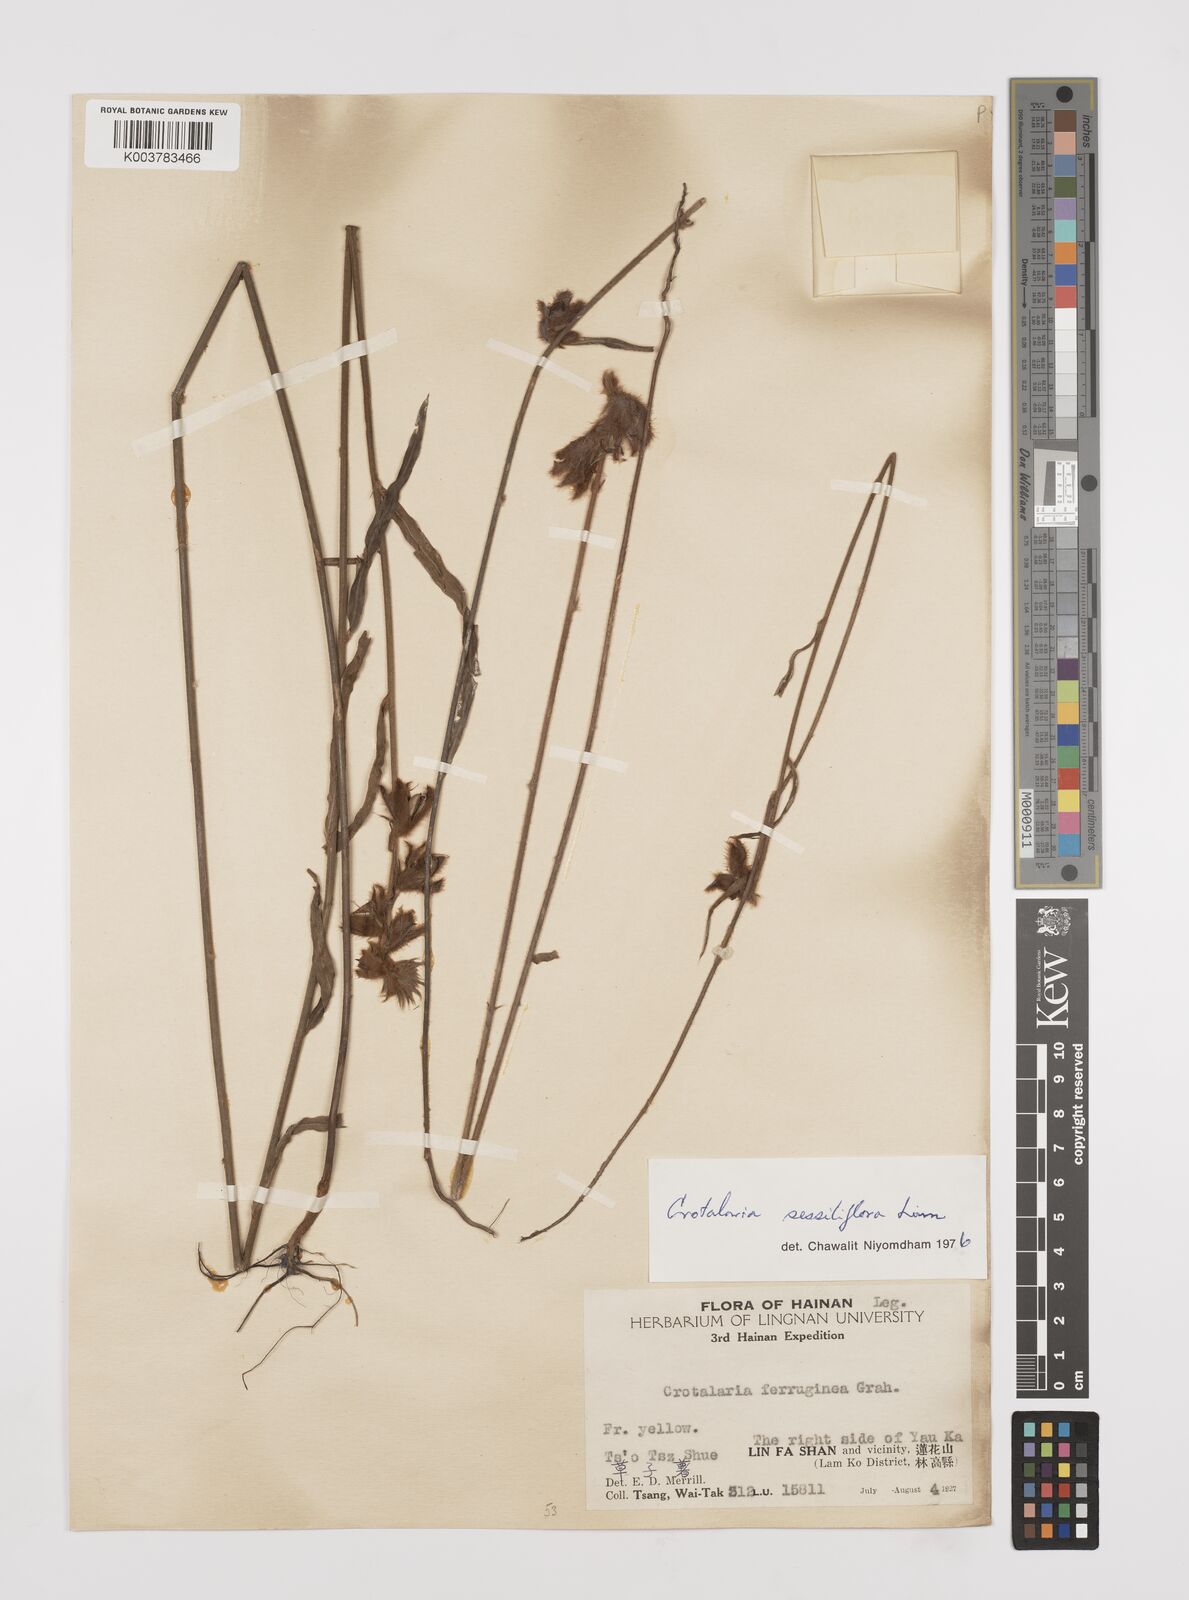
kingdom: Plantae
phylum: Tracheophyta
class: Magnoliopsida
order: Fabales
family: Fabaceae
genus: Crotalaria
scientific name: Crotalaria lejoloba
